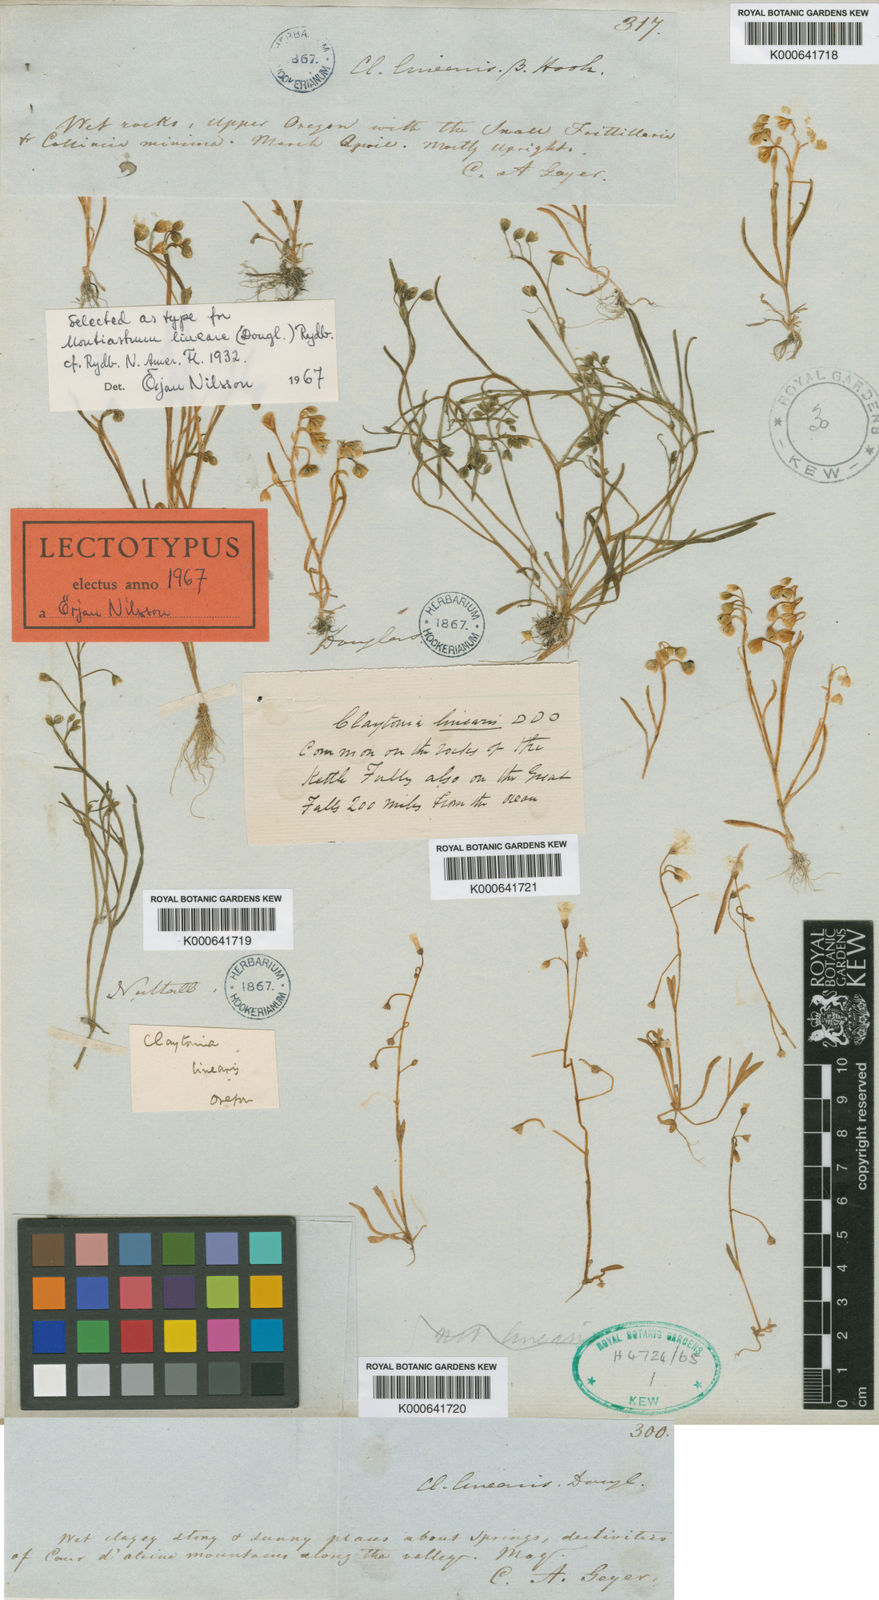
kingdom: Plantae
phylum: Tracheophyta
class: Magnoliopsida
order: Caryophyllales
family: Montiaceae
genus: Montia
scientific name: Montia linearis
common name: Narrow-leaf montia
